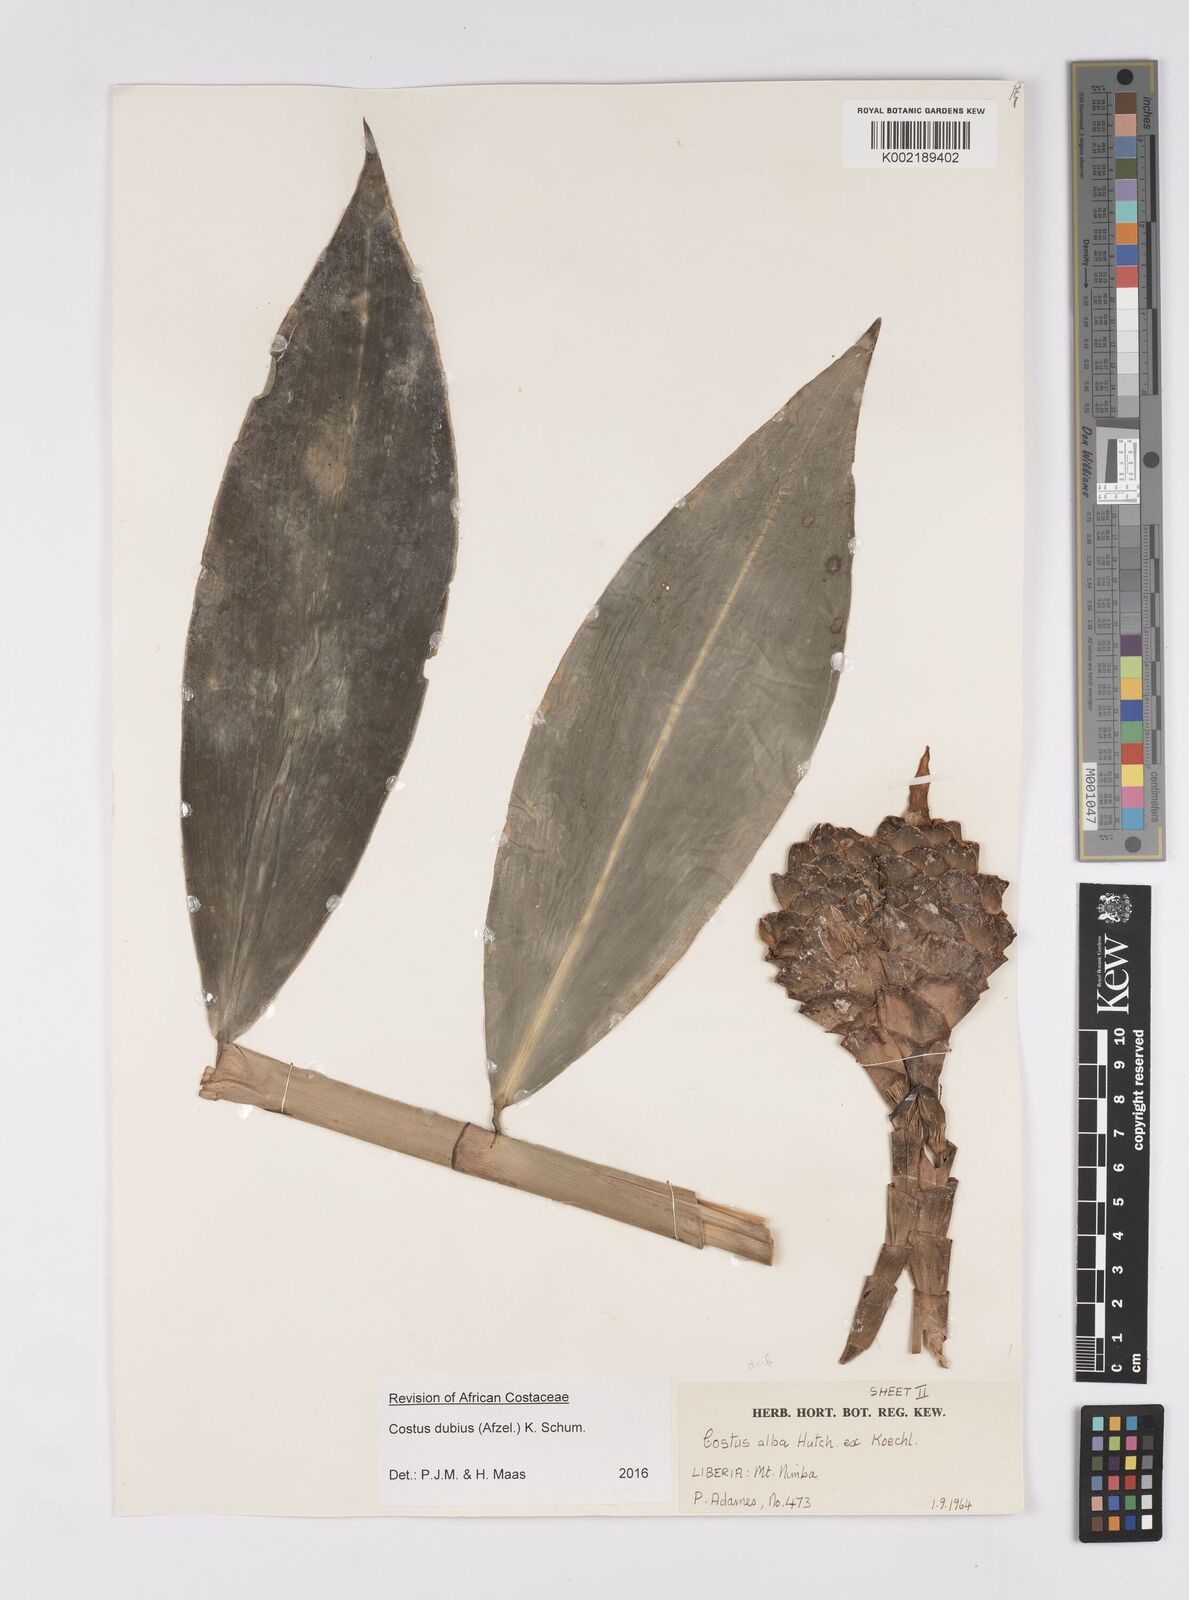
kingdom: Plantae
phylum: Tracheophyta
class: Liliopsida
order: Zingiberales
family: Costaceae
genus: Costus
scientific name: Costus dubius
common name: Costus
